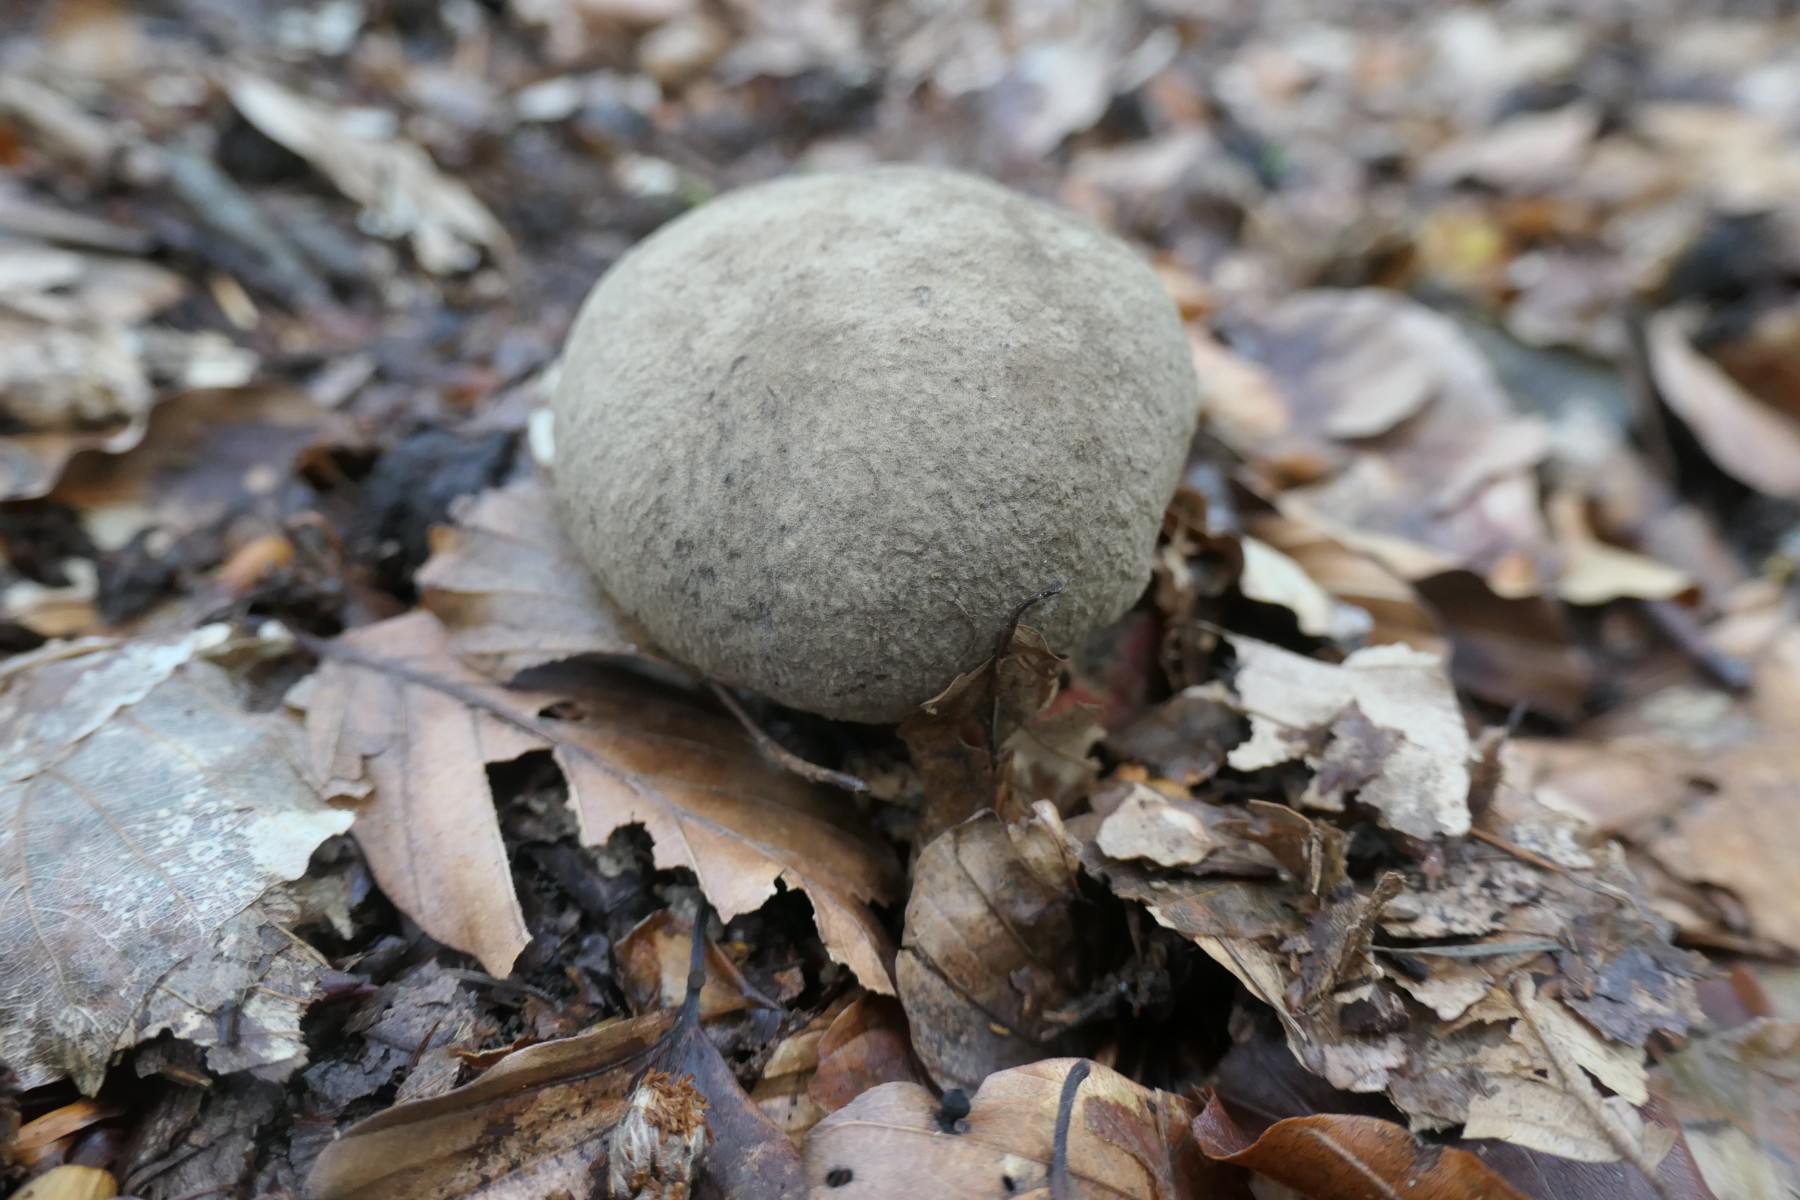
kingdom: Fungi
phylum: Basidiomycota
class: Agaricomycetes
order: Boletales
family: Boletaceae
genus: Caloboletus
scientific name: Caloboletus calopus
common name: skønfodet rørhat
